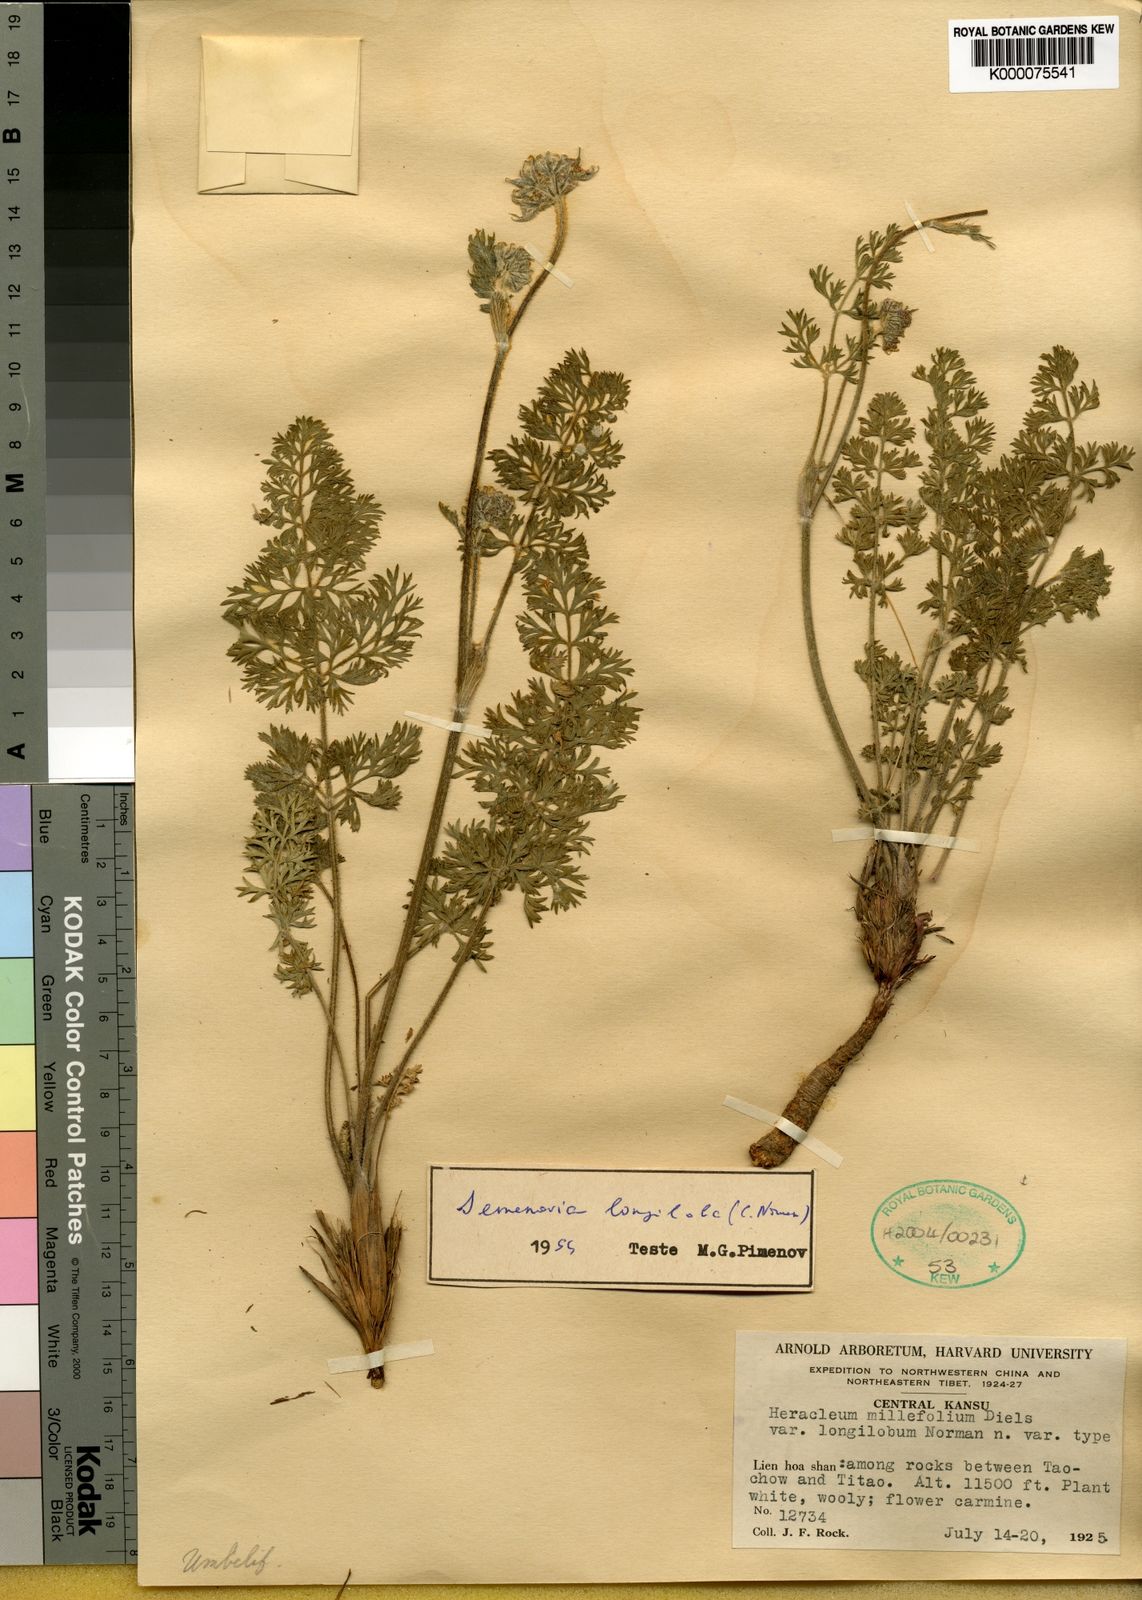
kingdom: Plantae
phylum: Tracheophyta
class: Magnoliopsida
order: Apiales
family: Apiaceae
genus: Semenovia
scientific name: Semenovia torilifolia
